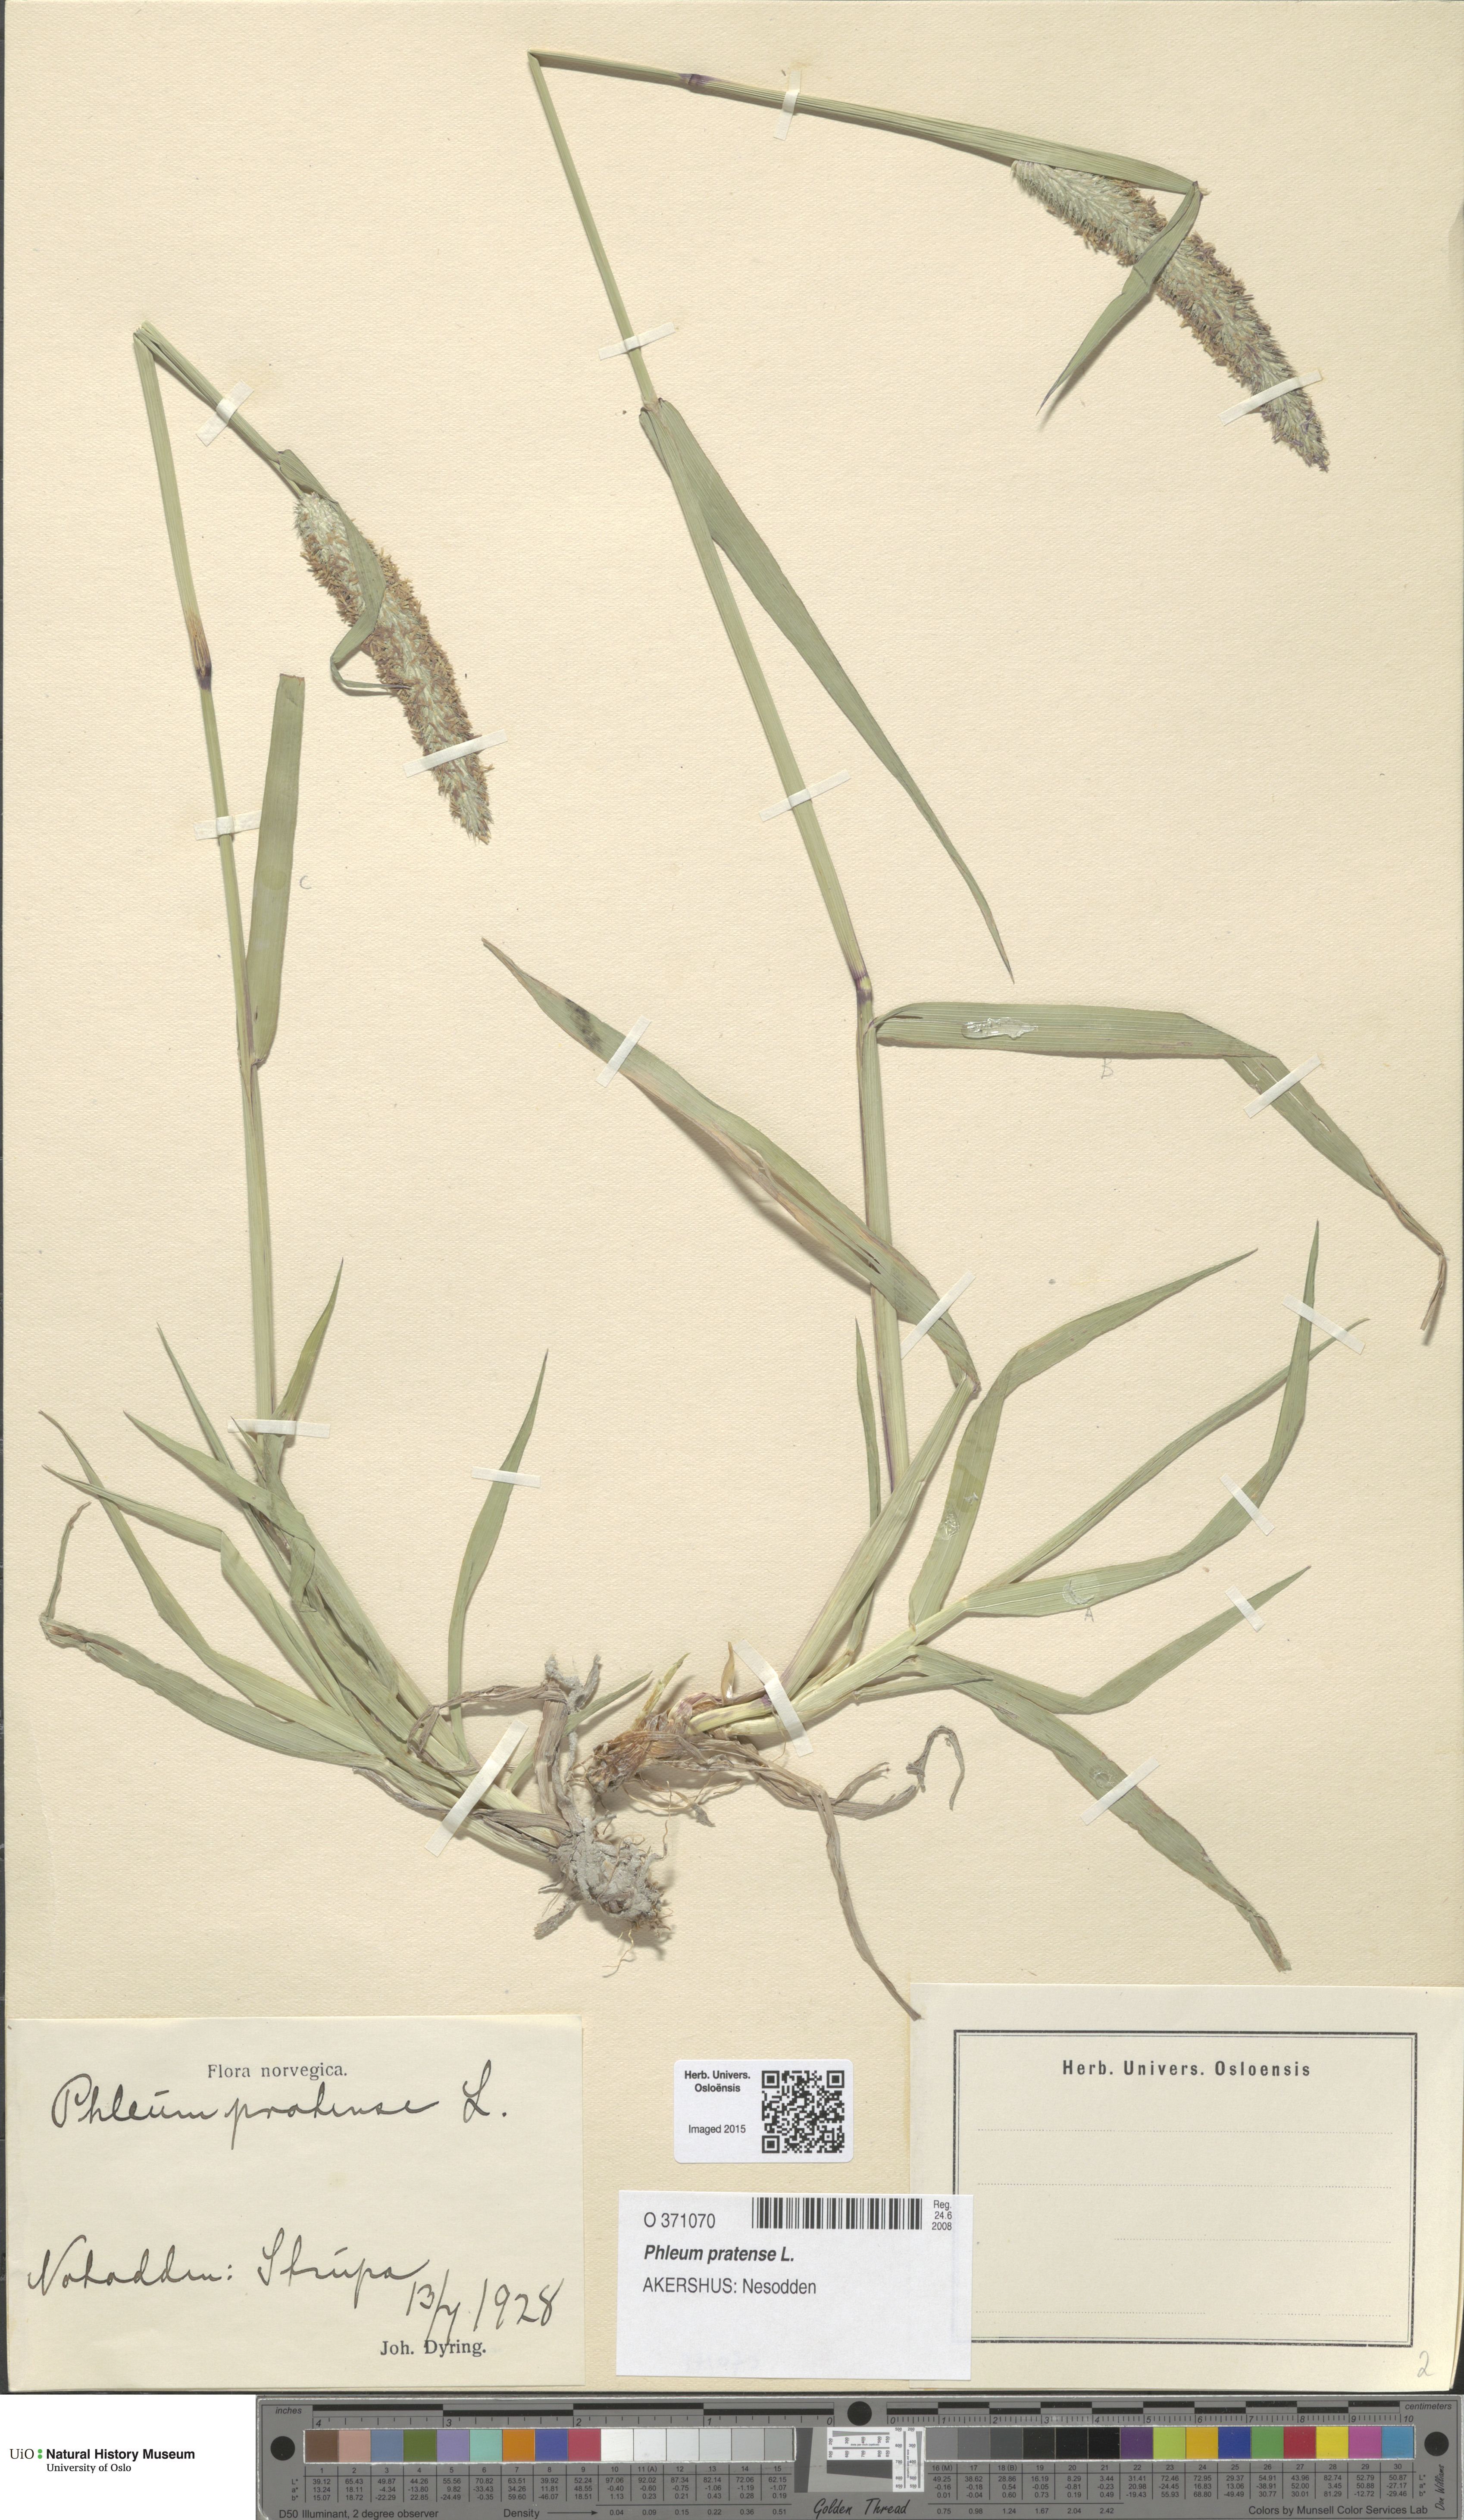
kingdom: Plantae
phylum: Tracheophyta
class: Liliopsida
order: Poales
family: Poaceae
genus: Phleum
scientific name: Phleum pratense
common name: Timothy grass
